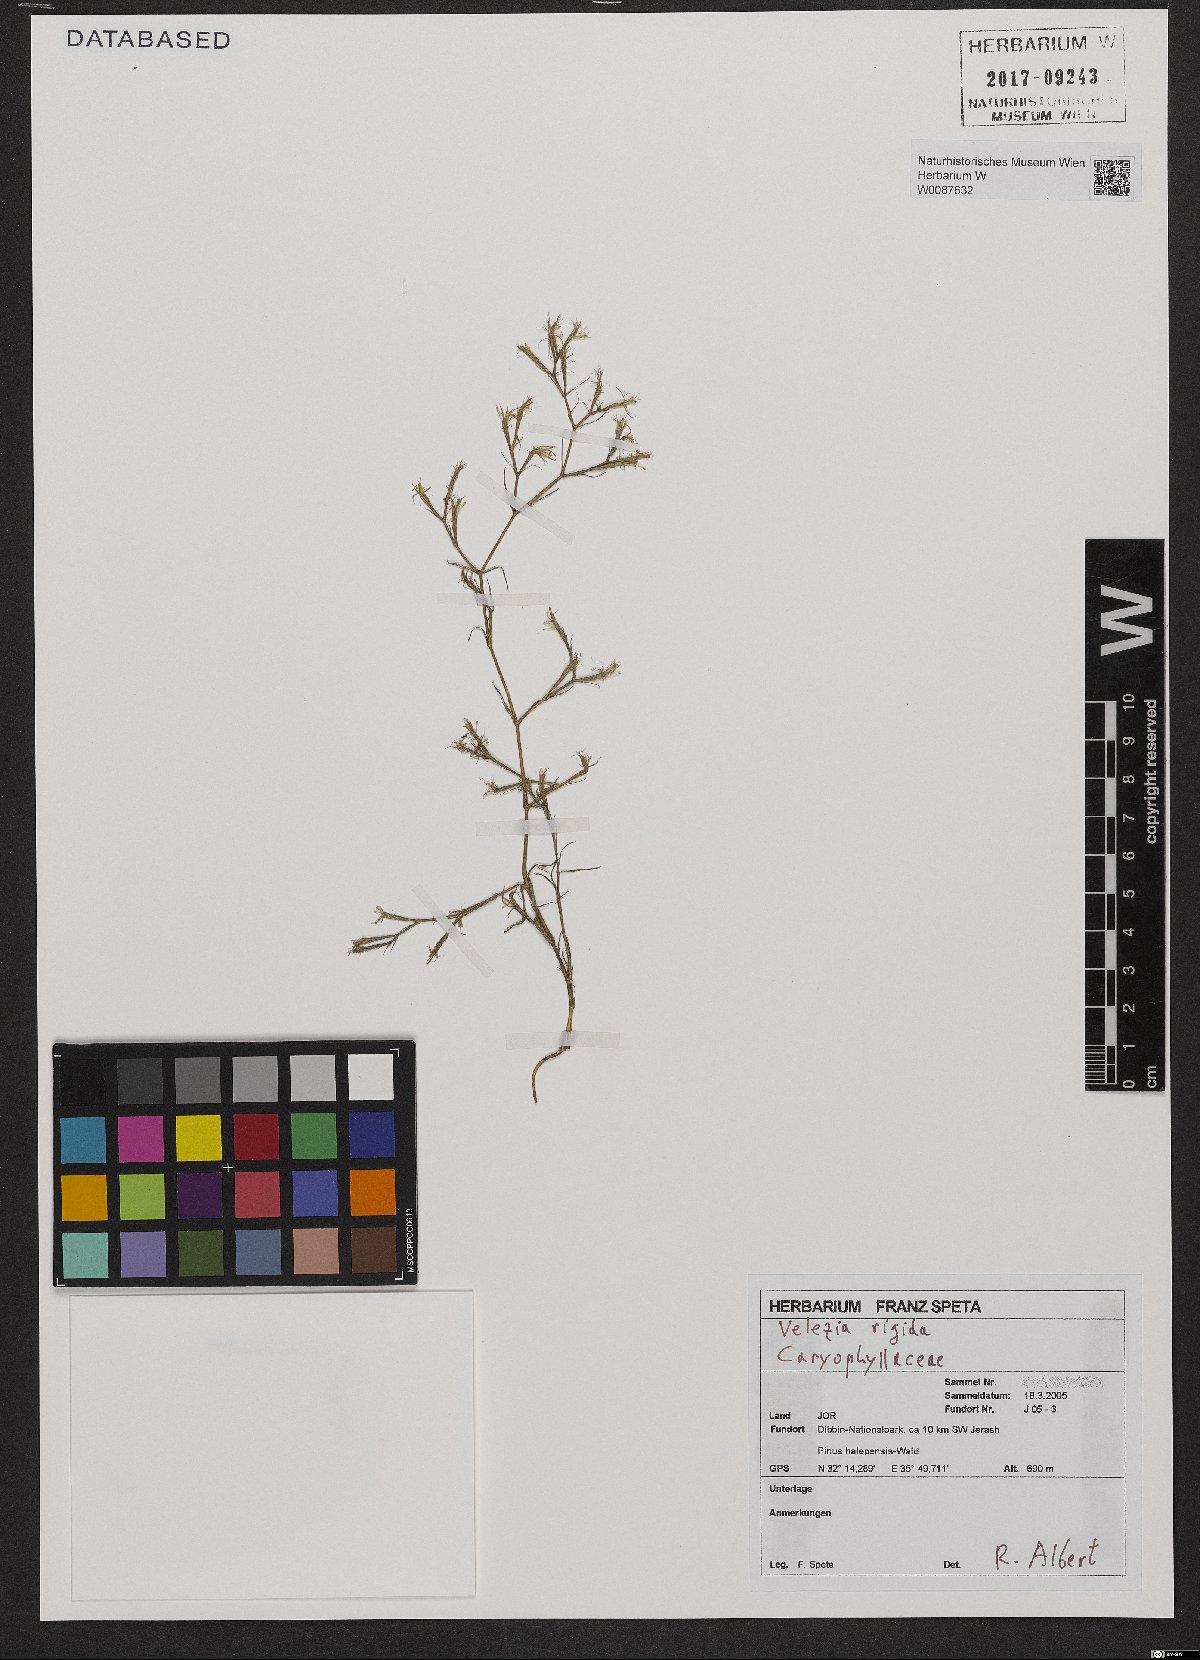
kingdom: Plantae
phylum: Tracheophyta
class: Magnoliopsida
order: Caryophyllales
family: Caryophyllaceae
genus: Dianthus
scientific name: Dianthus nudiflorus
